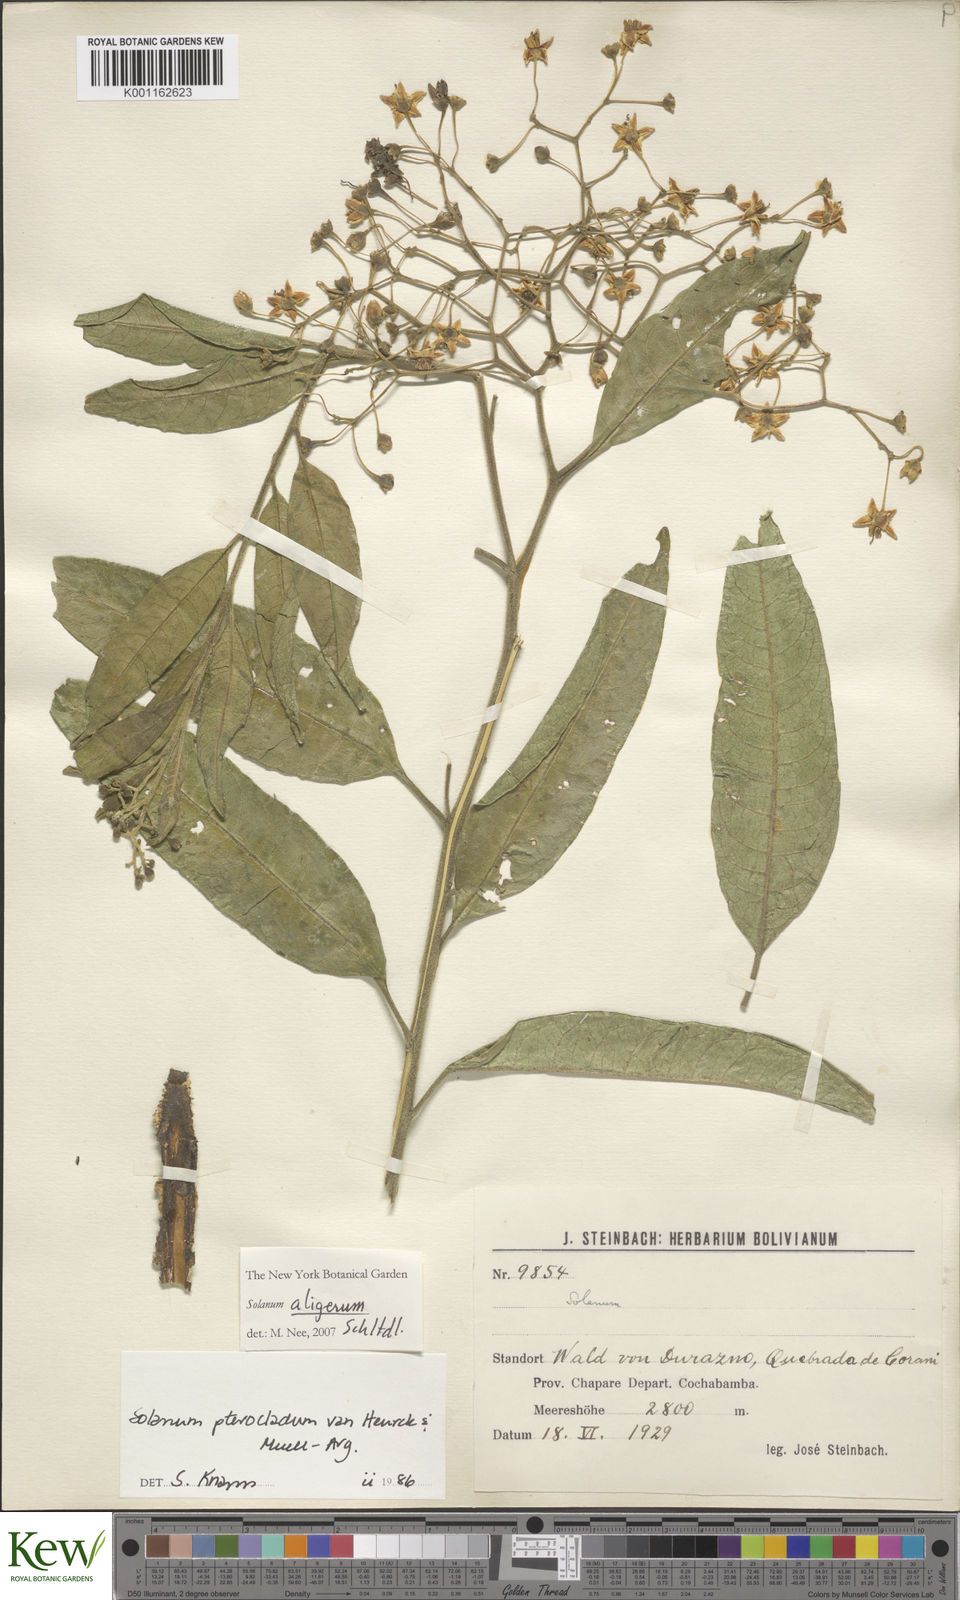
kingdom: Plantae
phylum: Tracheophyta
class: Magnoliopsida
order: Solanales
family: Solanaceae
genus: Solanum
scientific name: Solanum aligerum
